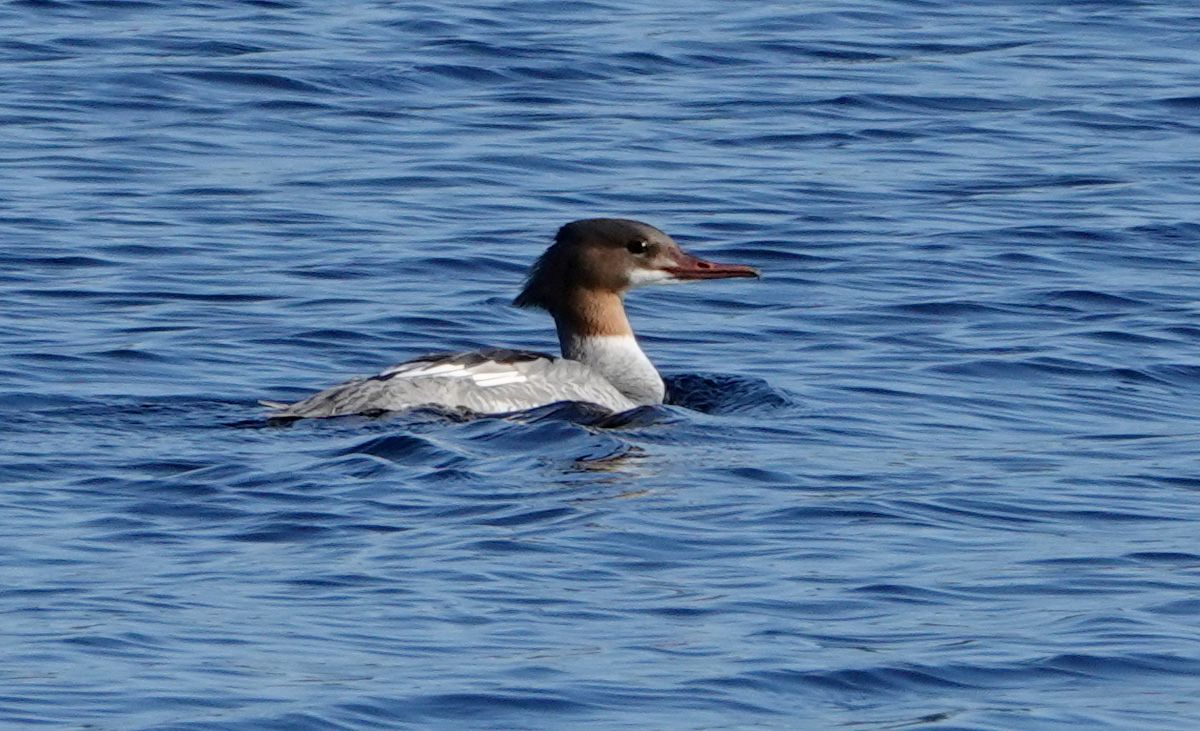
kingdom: Animalia
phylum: Chordata
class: Aves
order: Anseriformes
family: Anatidae
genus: Mergus
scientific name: Mergus merganser
